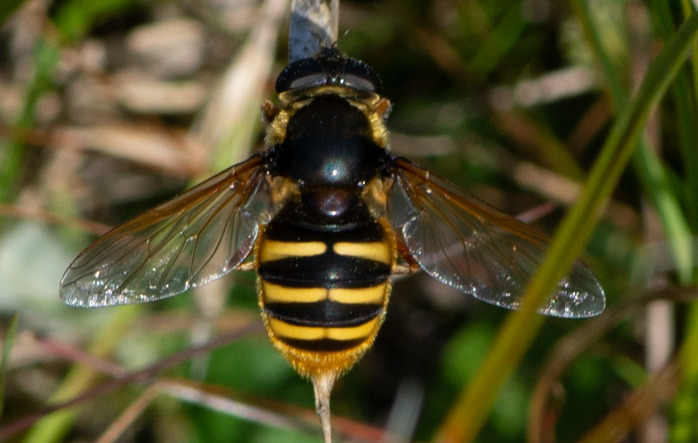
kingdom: Animalia
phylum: Arthropoda
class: Insecta
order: Diptera
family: Syrphidae
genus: Sericomyia
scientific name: Sericomyia silentis
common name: Tørve-silkesvirreflue
